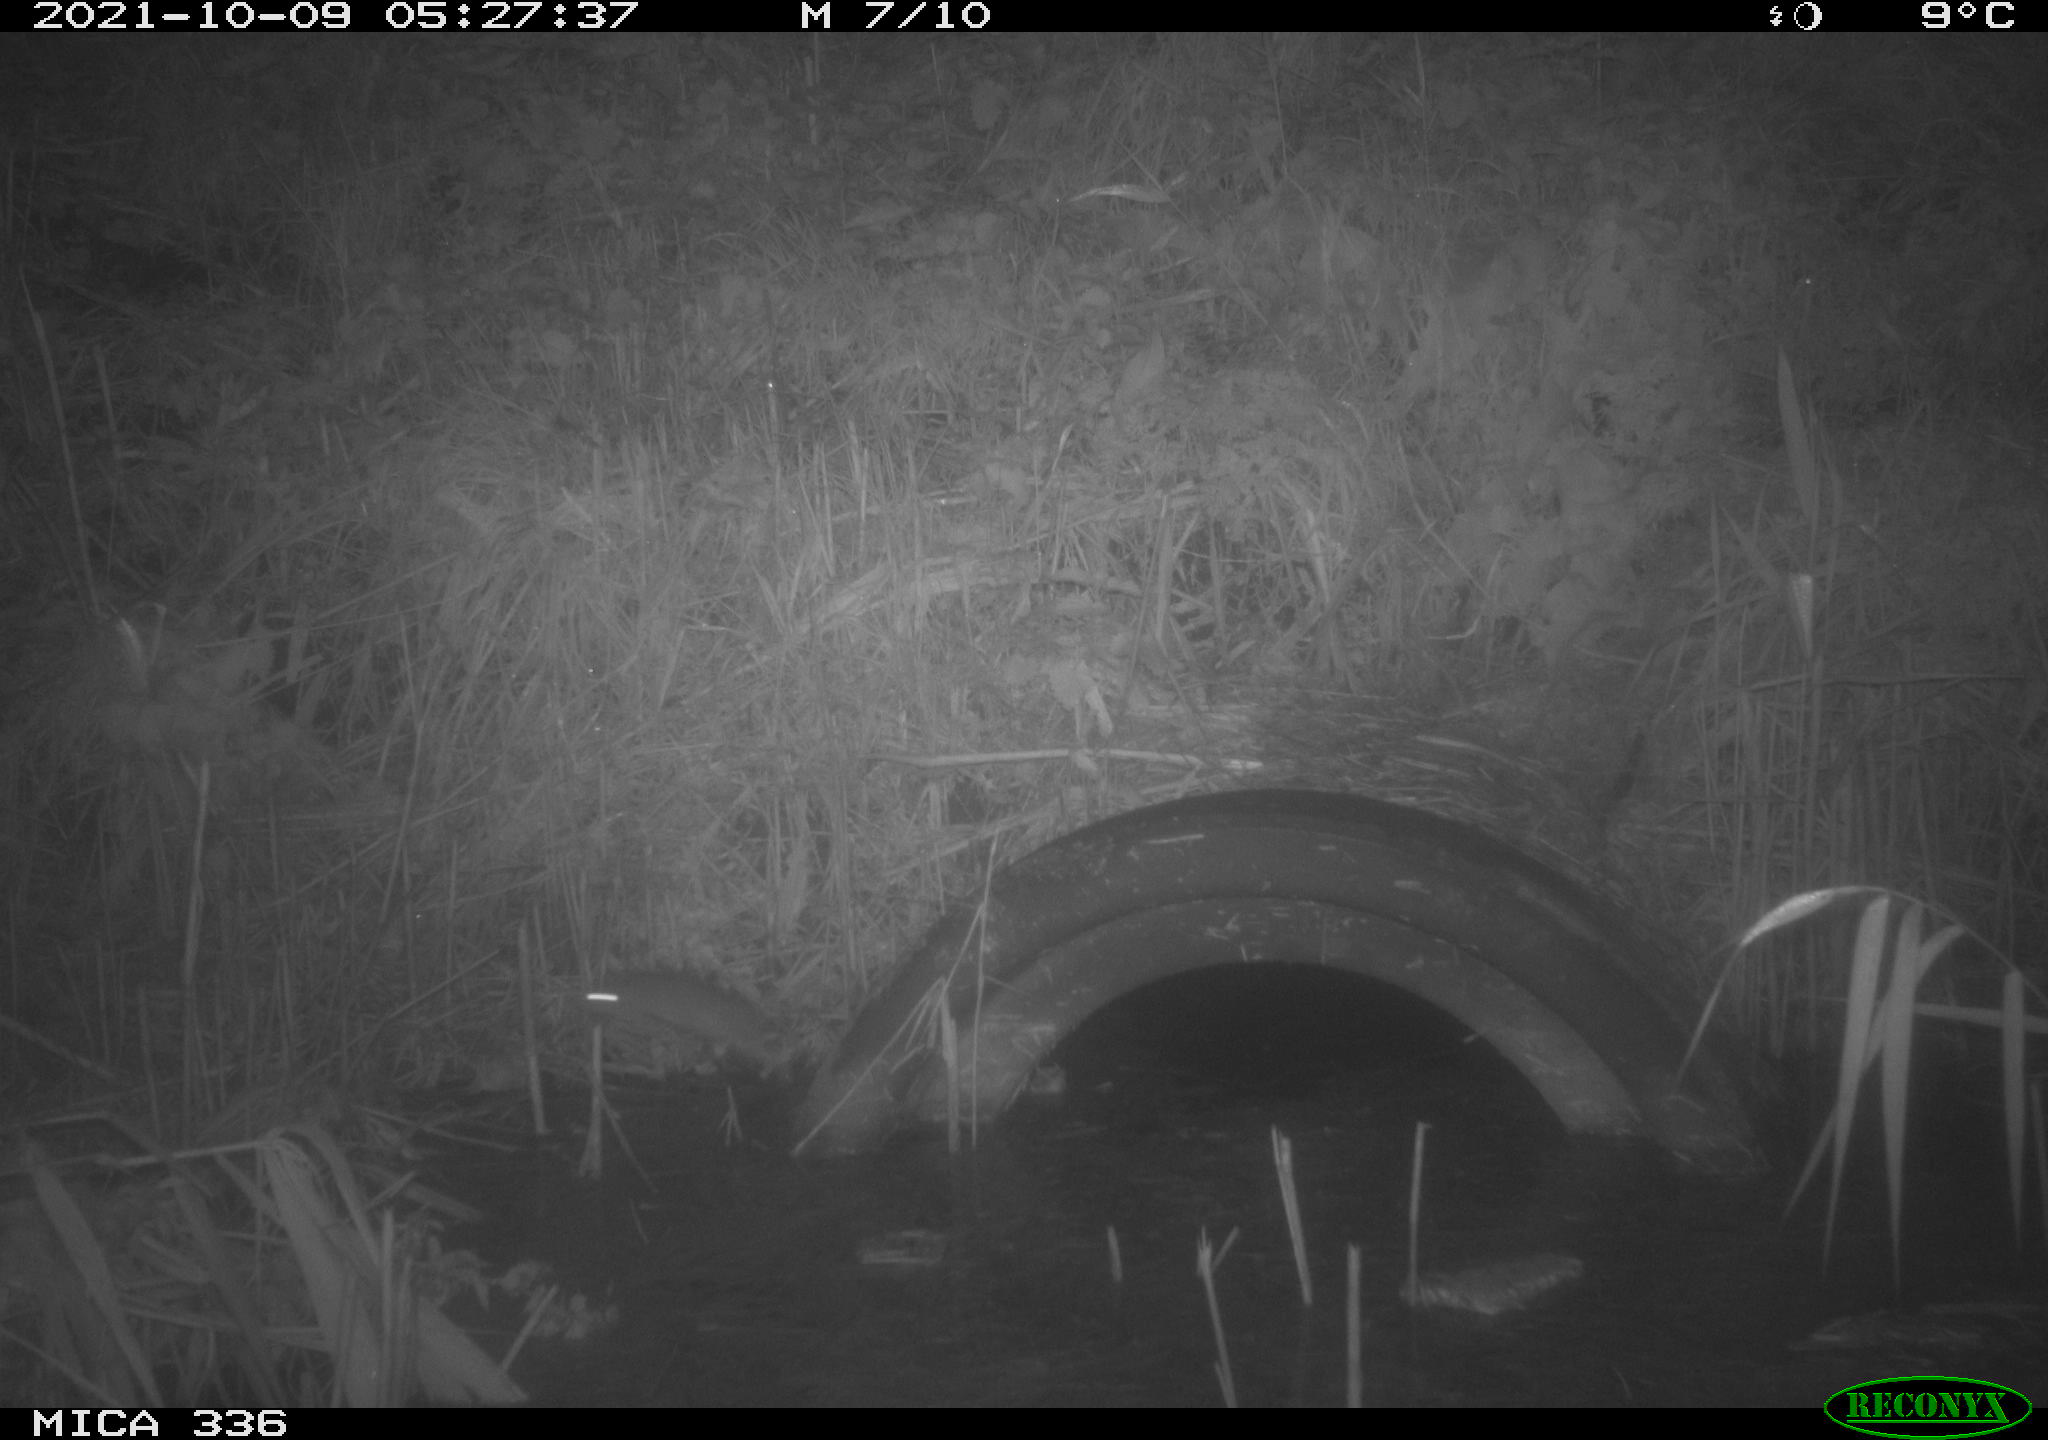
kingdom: Animalia
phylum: Chordata
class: Mammalia
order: Rodentia
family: Muridae
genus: Rattus
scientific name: Rattus norvegicus
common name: Brown rat
